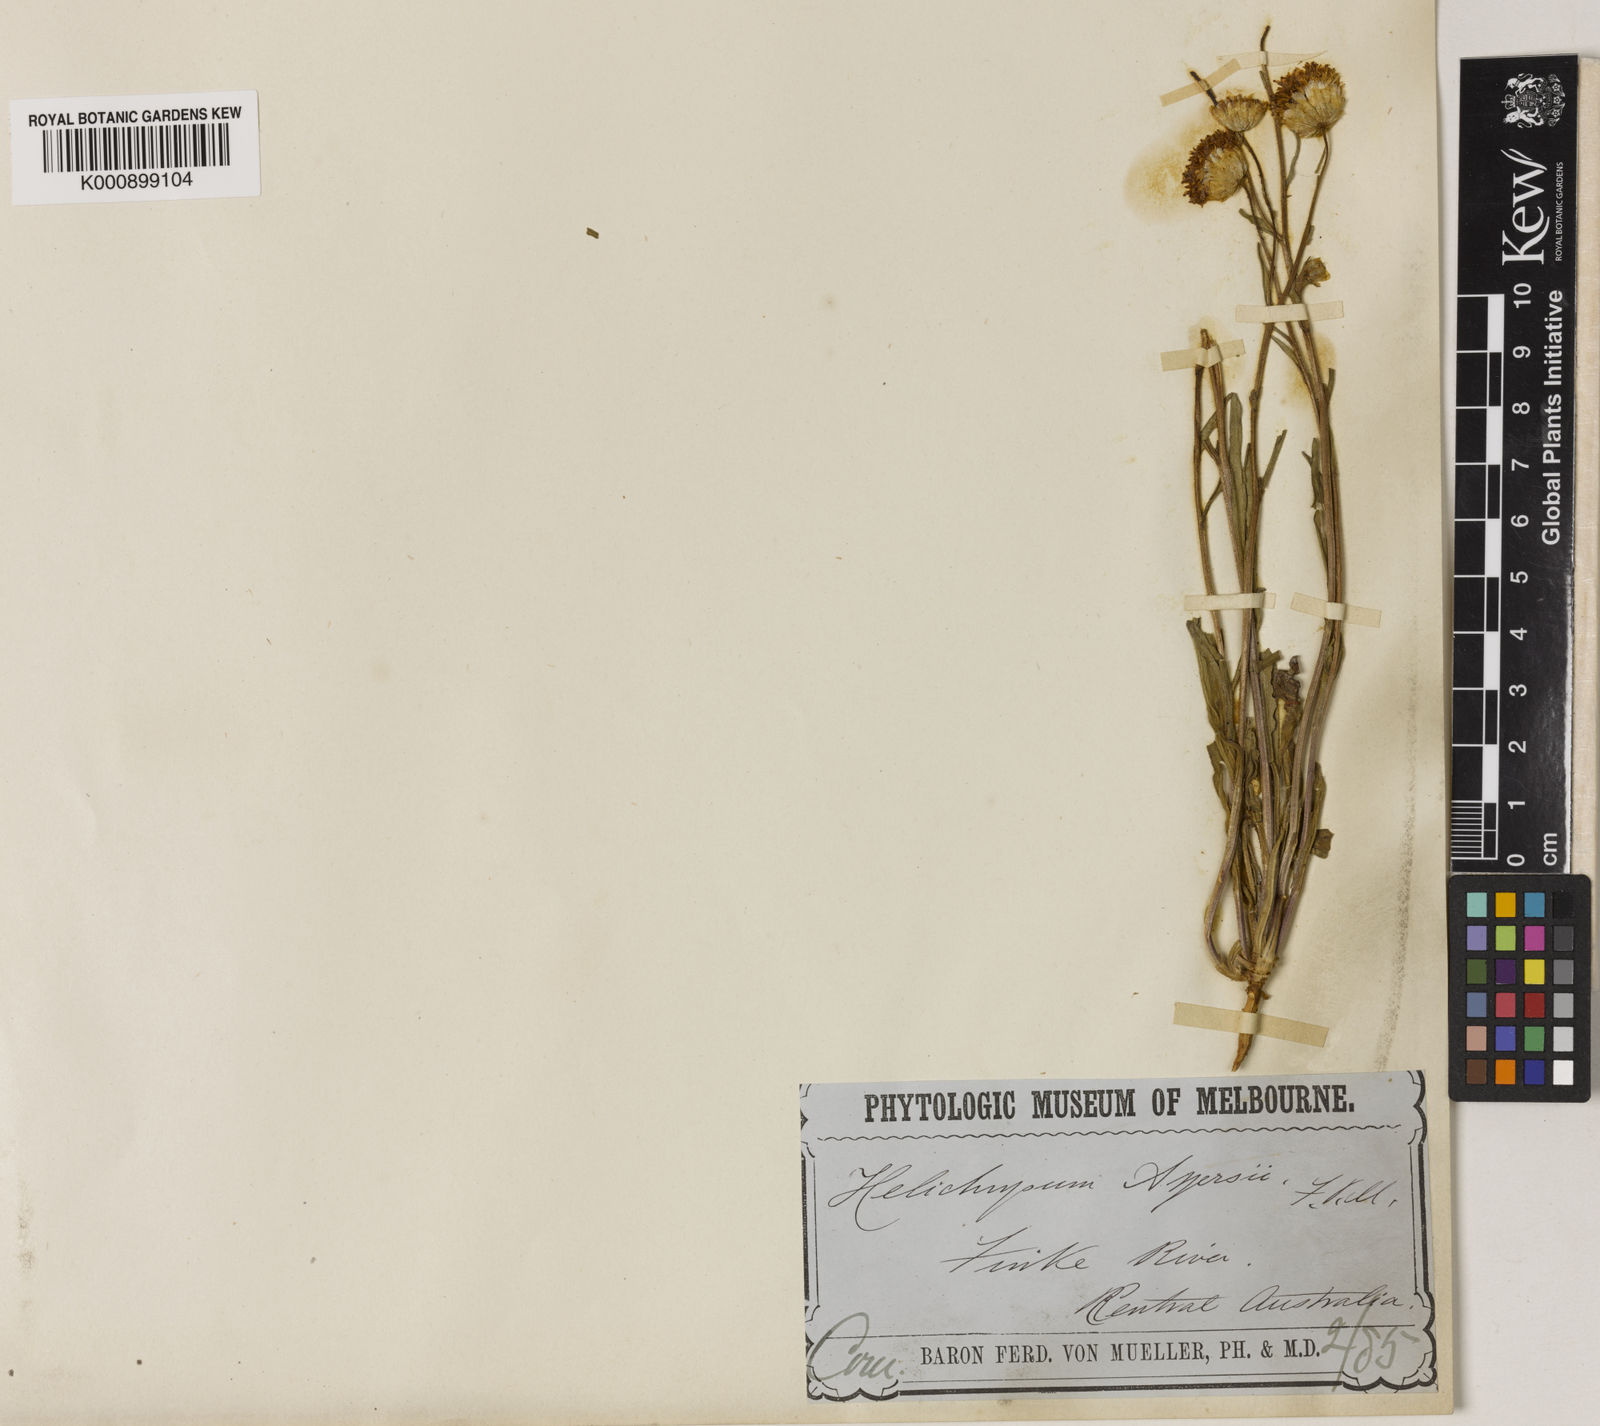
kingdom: Plantae
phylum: Tracheophyta
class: Magnoliopsida
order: Asterales
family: Asteraceae
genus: Schoenia
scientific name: Schoenia ayersii
